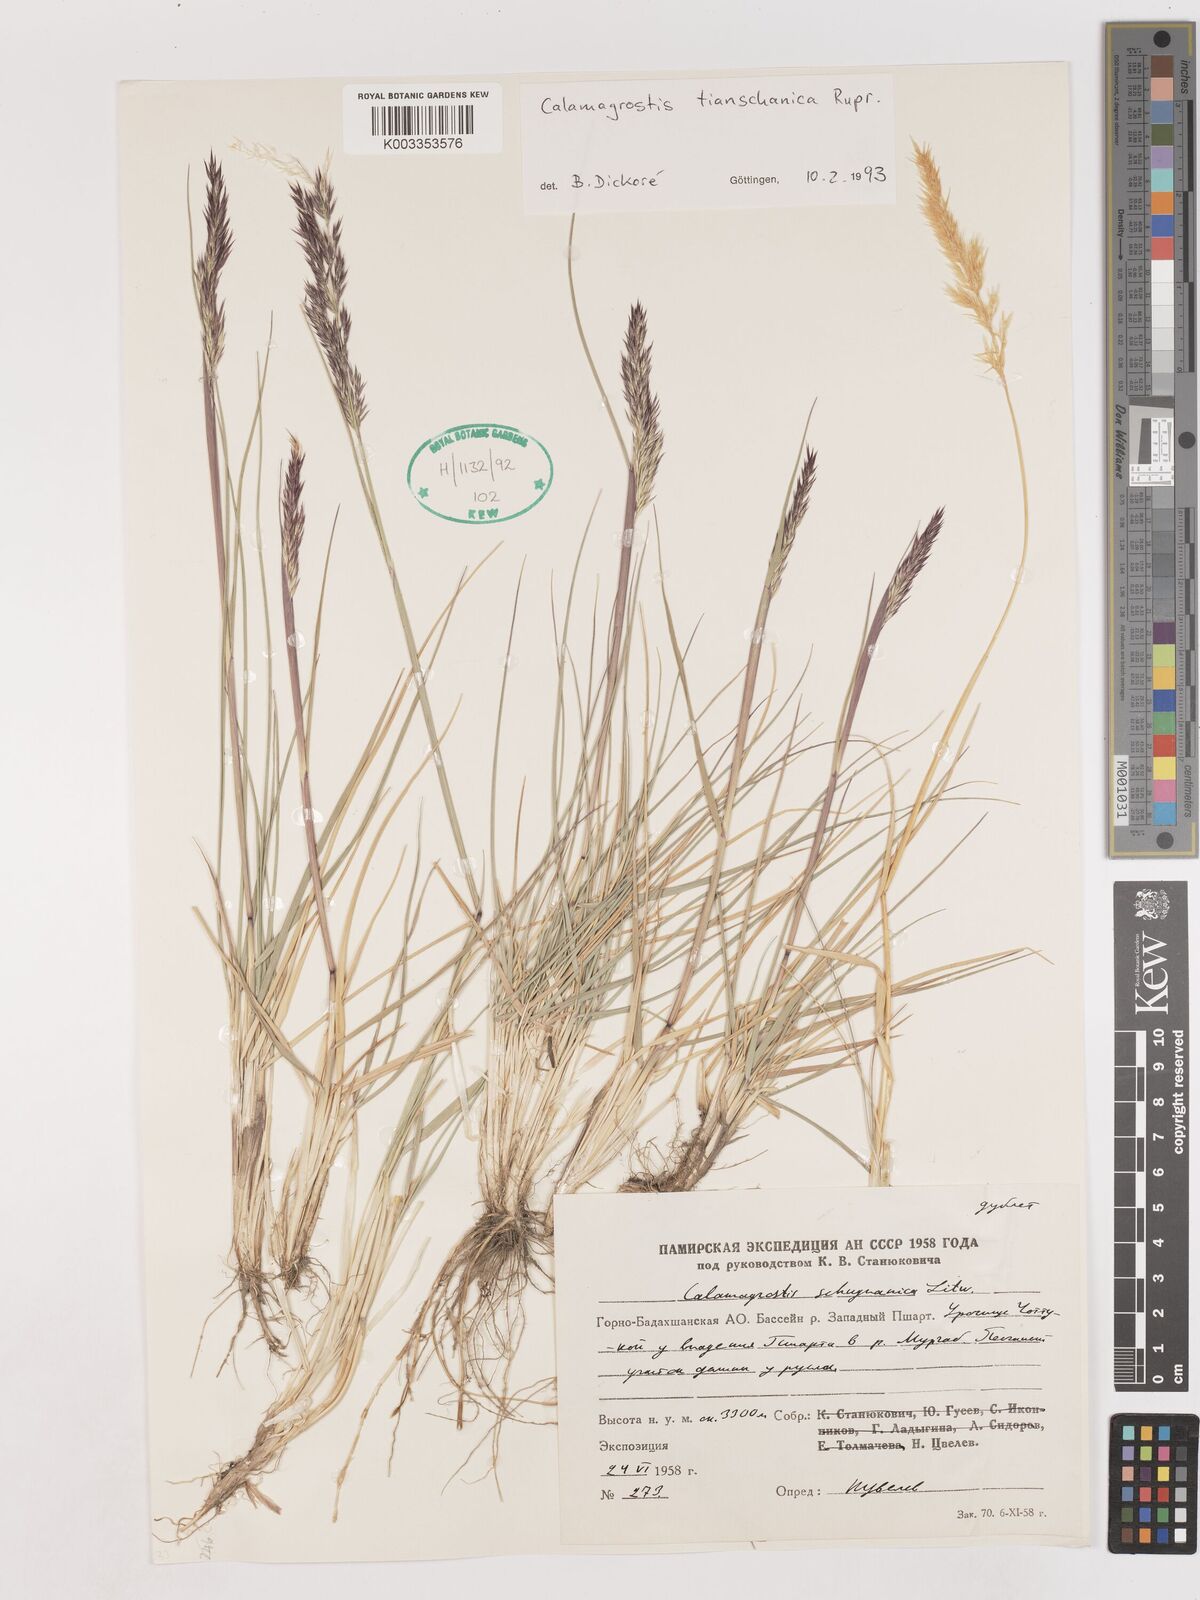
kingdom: Plantae
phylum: Tracheophyta
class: Liliopsida
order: Poales
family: Poaceae
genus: Calamagrostis
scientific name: Calamagrostis tianschanica
